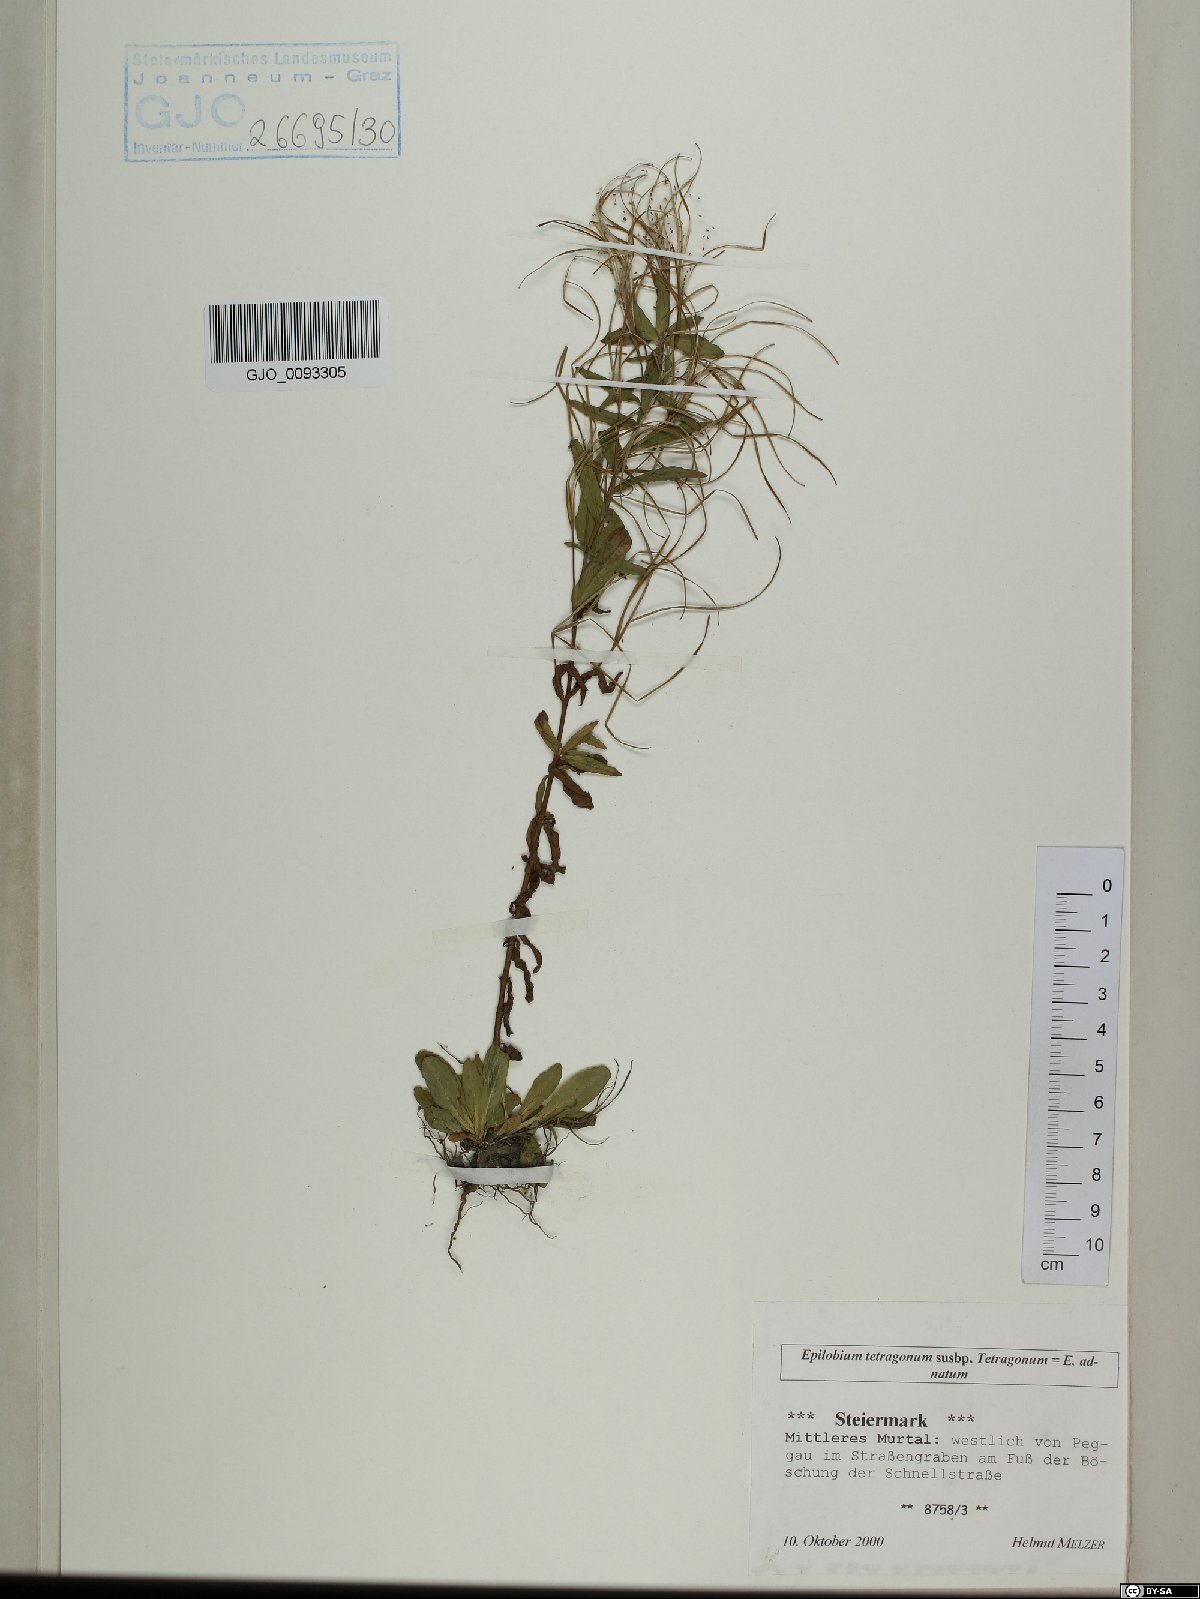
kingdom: Plantae
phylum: Tracheophyta
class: Magnoliopsida
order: Myrtales
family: Onagraceae
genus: Epilobium
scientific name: Epilobium tetragonum
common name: Square-stemmed willowherb
